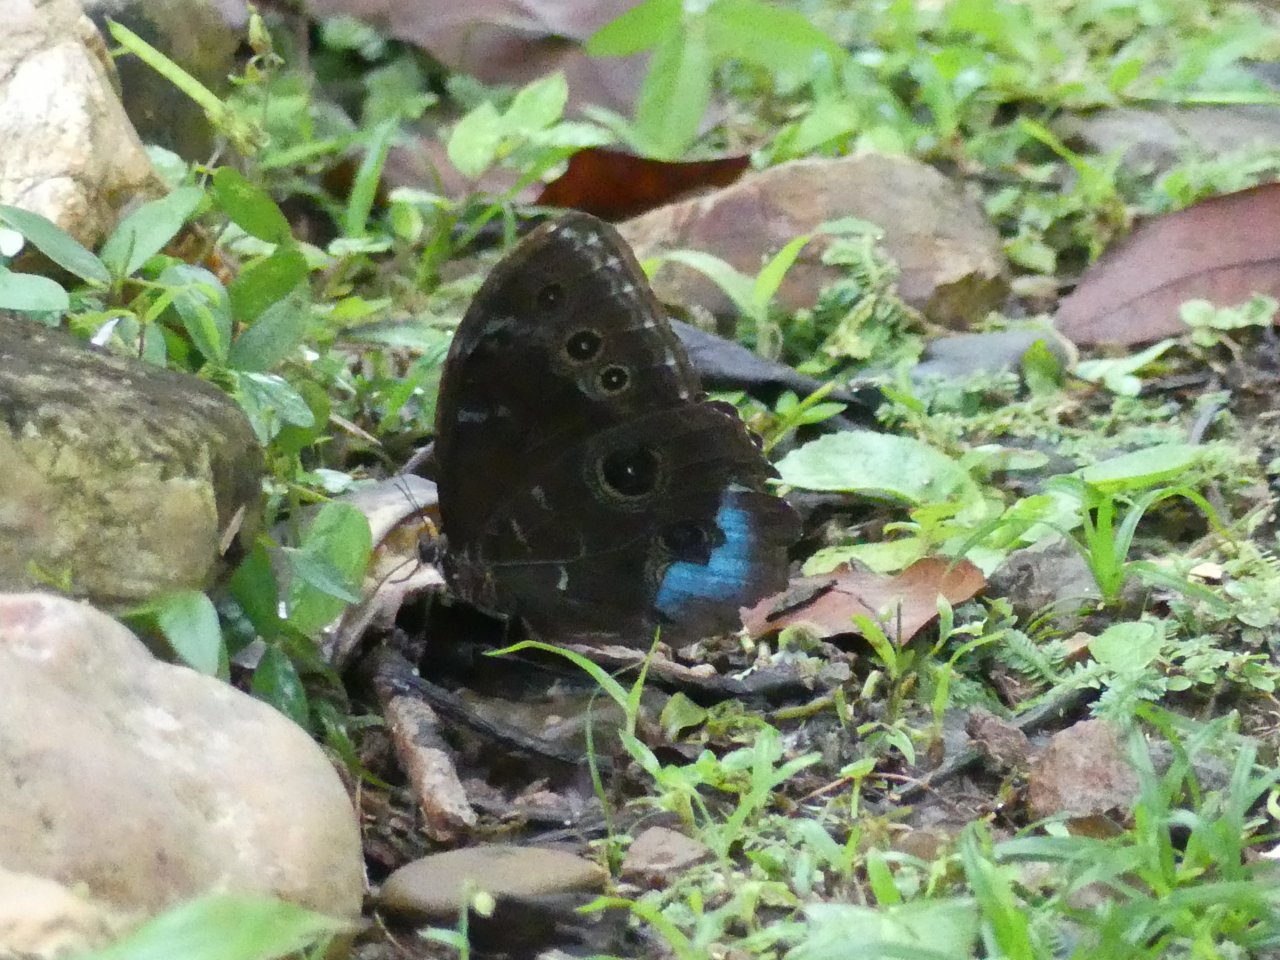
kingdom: Animalia
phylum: Arthropoda
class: Insecta
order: Lepidoptera
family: Nymphalidae
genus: Morpho
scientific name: Morpho helenor
